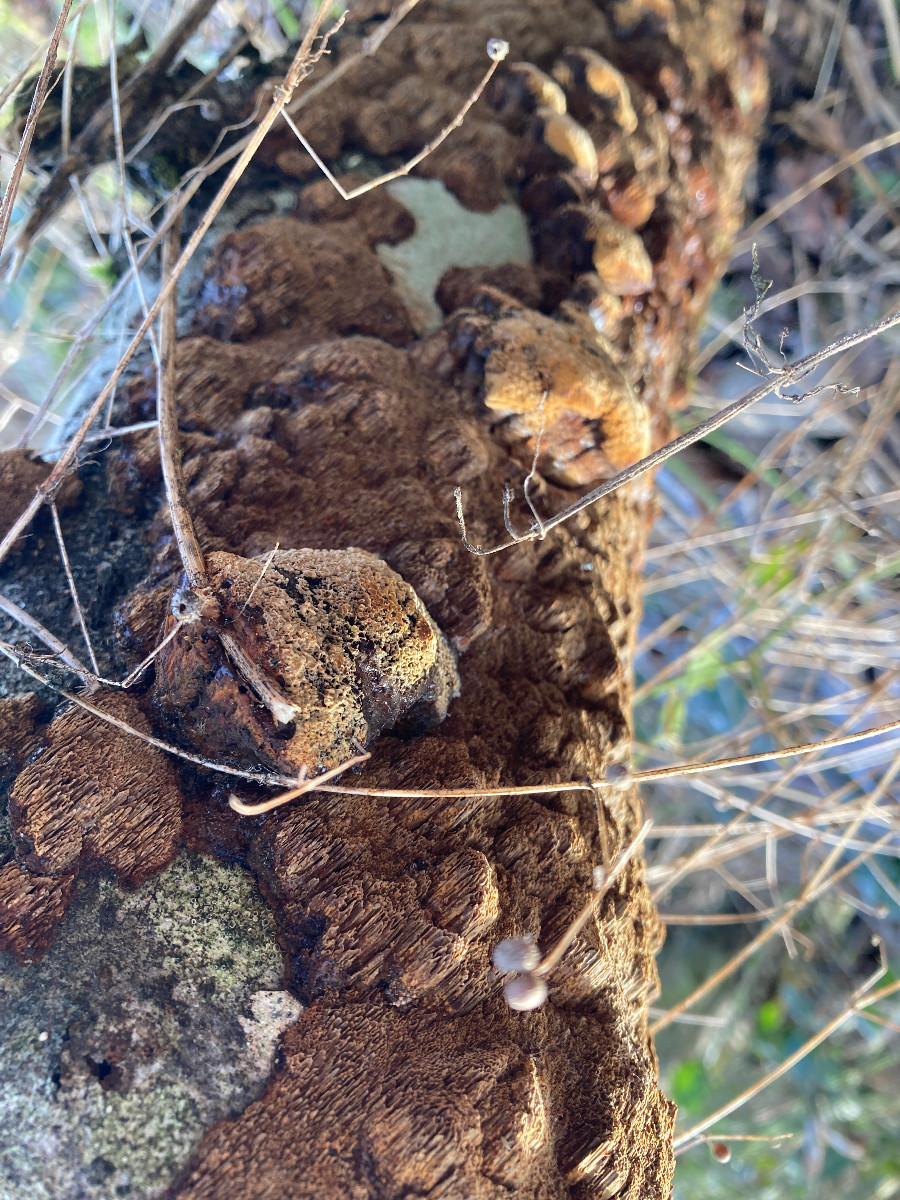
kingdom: Fungi
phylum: Basidiomycota
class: Agaricomycetes
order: Hymenochaetales
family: Hymenochaetaceae
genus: Xanthoporia
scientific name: Xanthoporia radiata
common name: elle-spejlporesvamp
